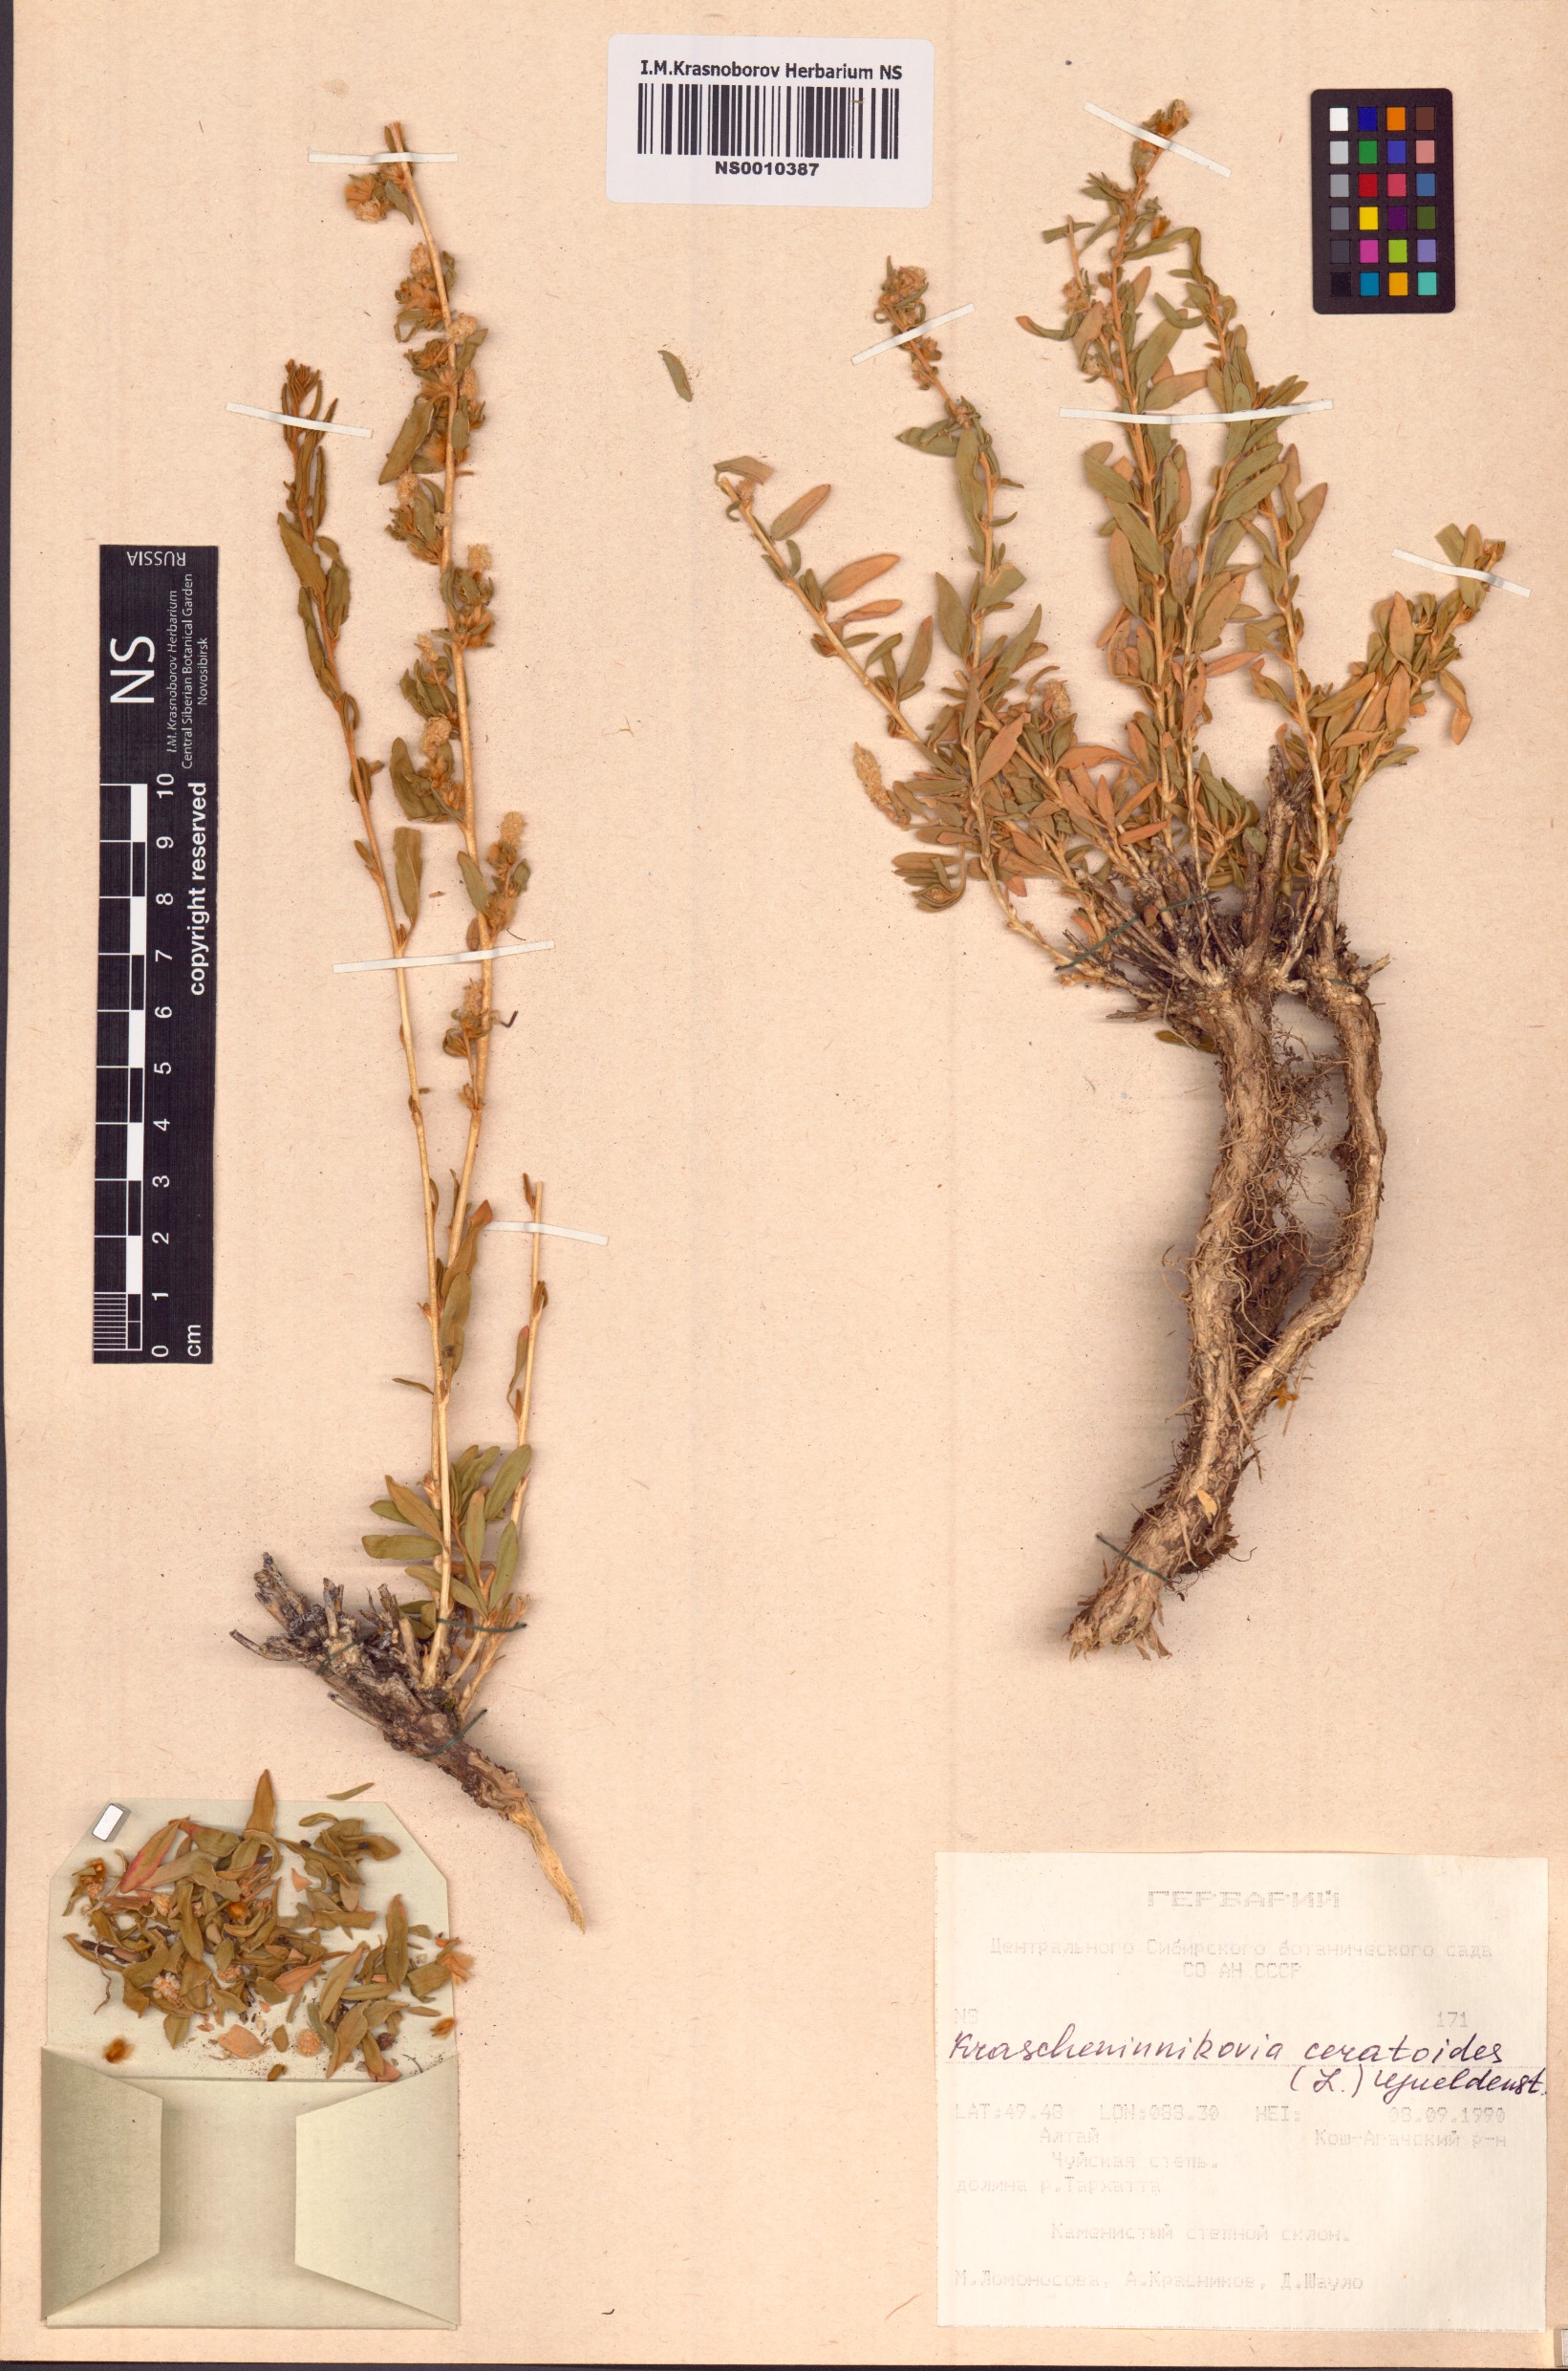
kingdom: Plantae
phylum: Tracheophyta
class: Magnoliopsida
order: Caryophyllales
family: Amaranthaceae
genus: Krascheninnikovia
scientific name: Krascheninnikovia ceratoides
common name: Pamirian winterfat
